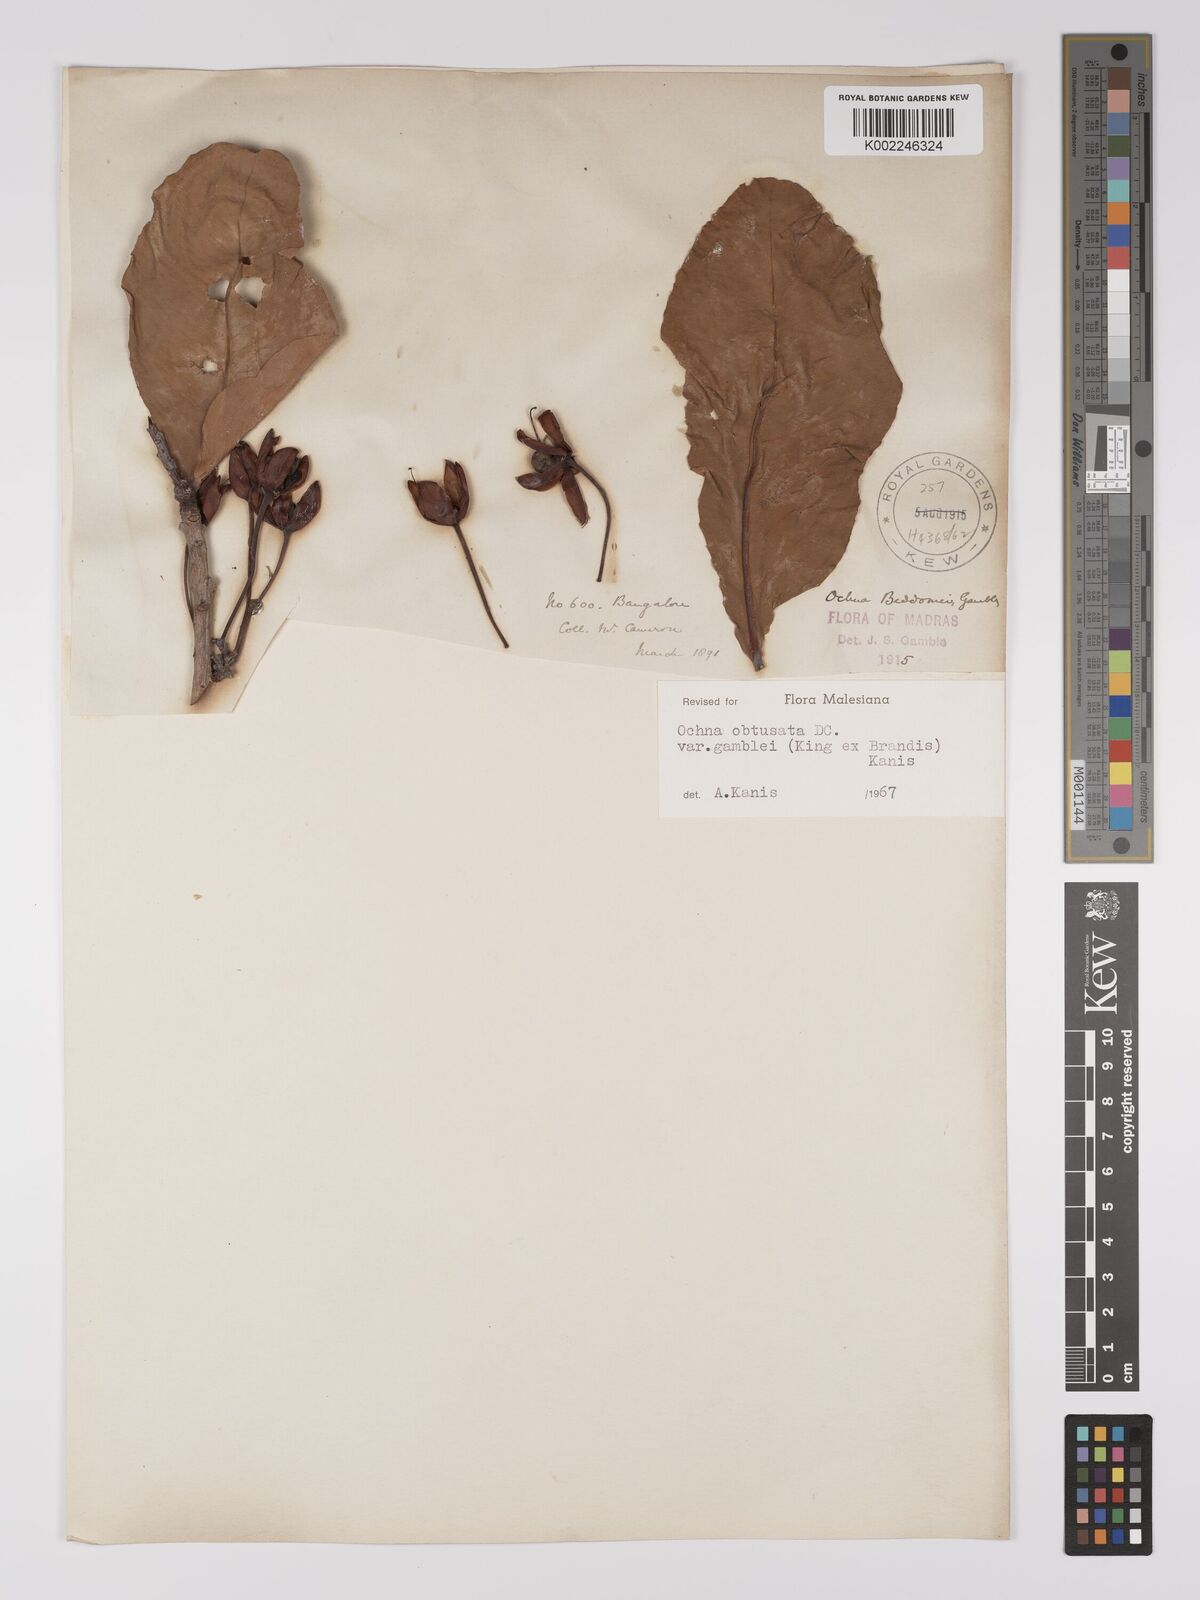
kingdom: Plantae
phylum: Tracheophyta
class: Magnoliopsida
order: Malpighiales
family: Ochnaceae
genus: Ochna
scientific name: Ochna obtusata
